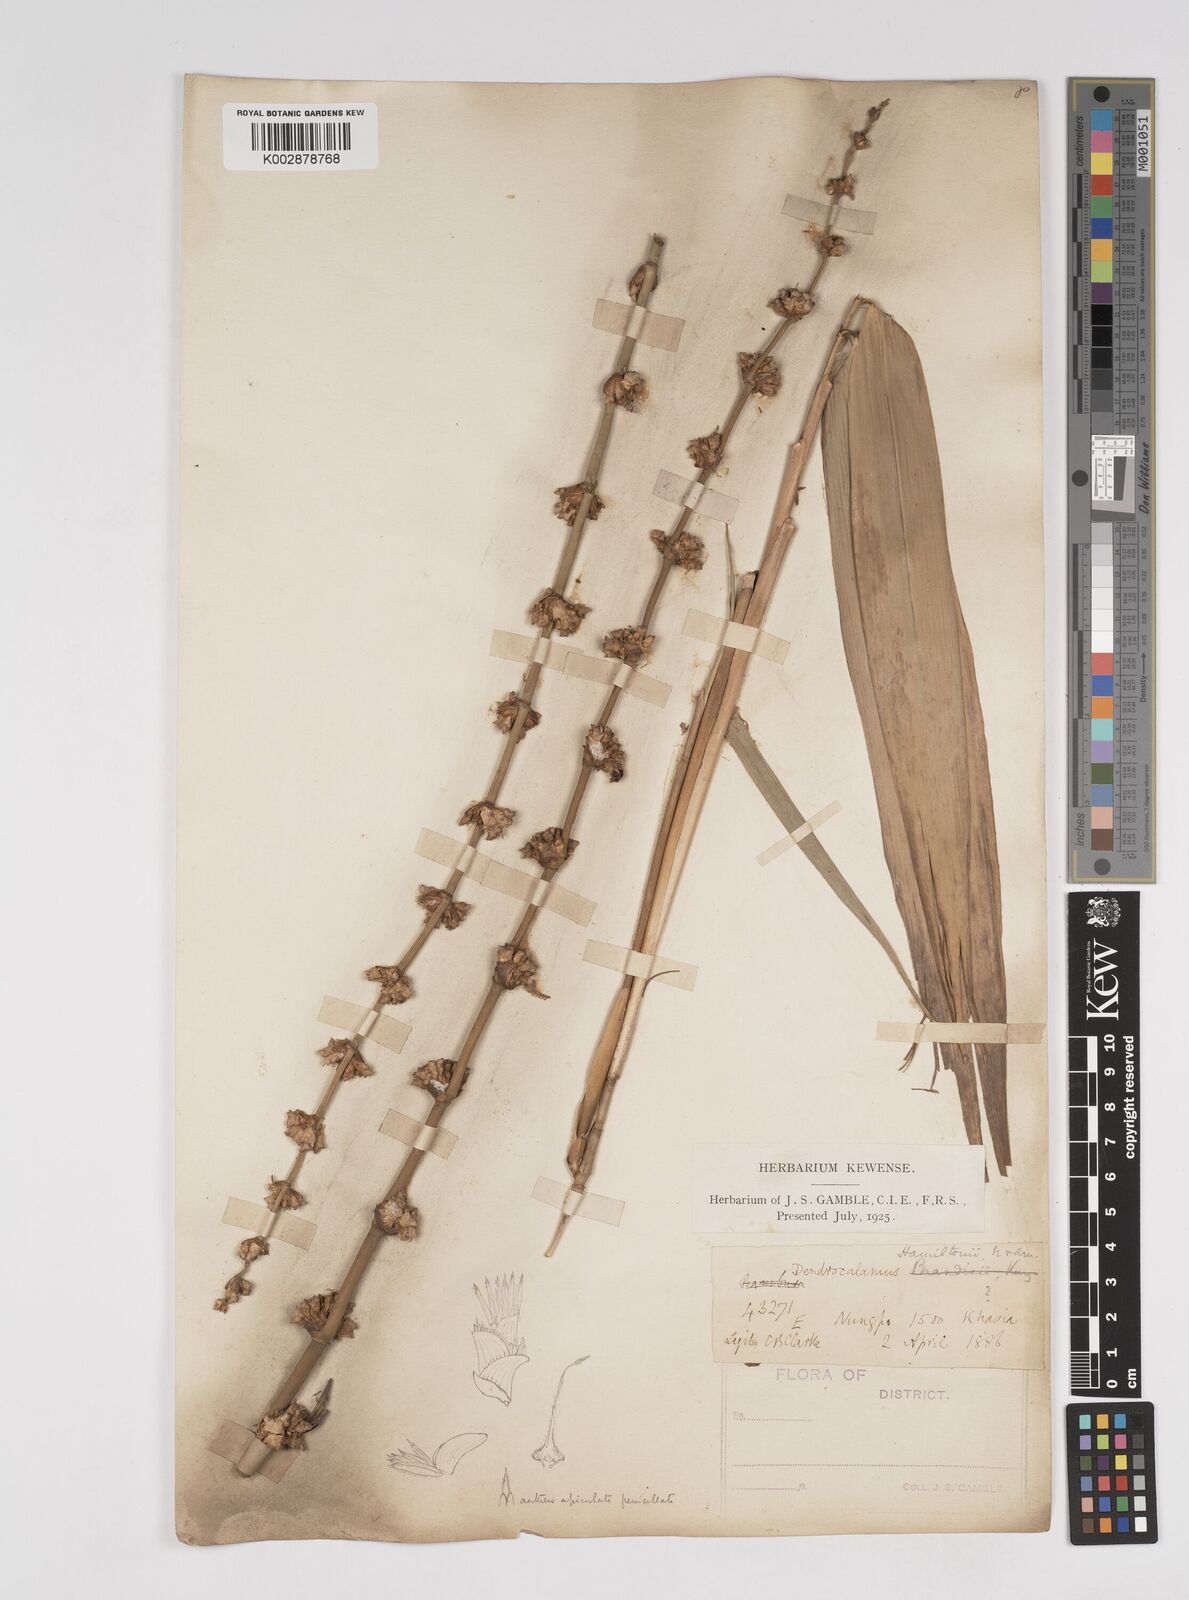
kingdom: Plantae
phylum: Tracheophyta
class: Liliopsida
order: Poales
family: Poaceae
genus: Dendrocalamus
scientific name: Dendrocalamus hamiltonii
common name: Tama bamboo
